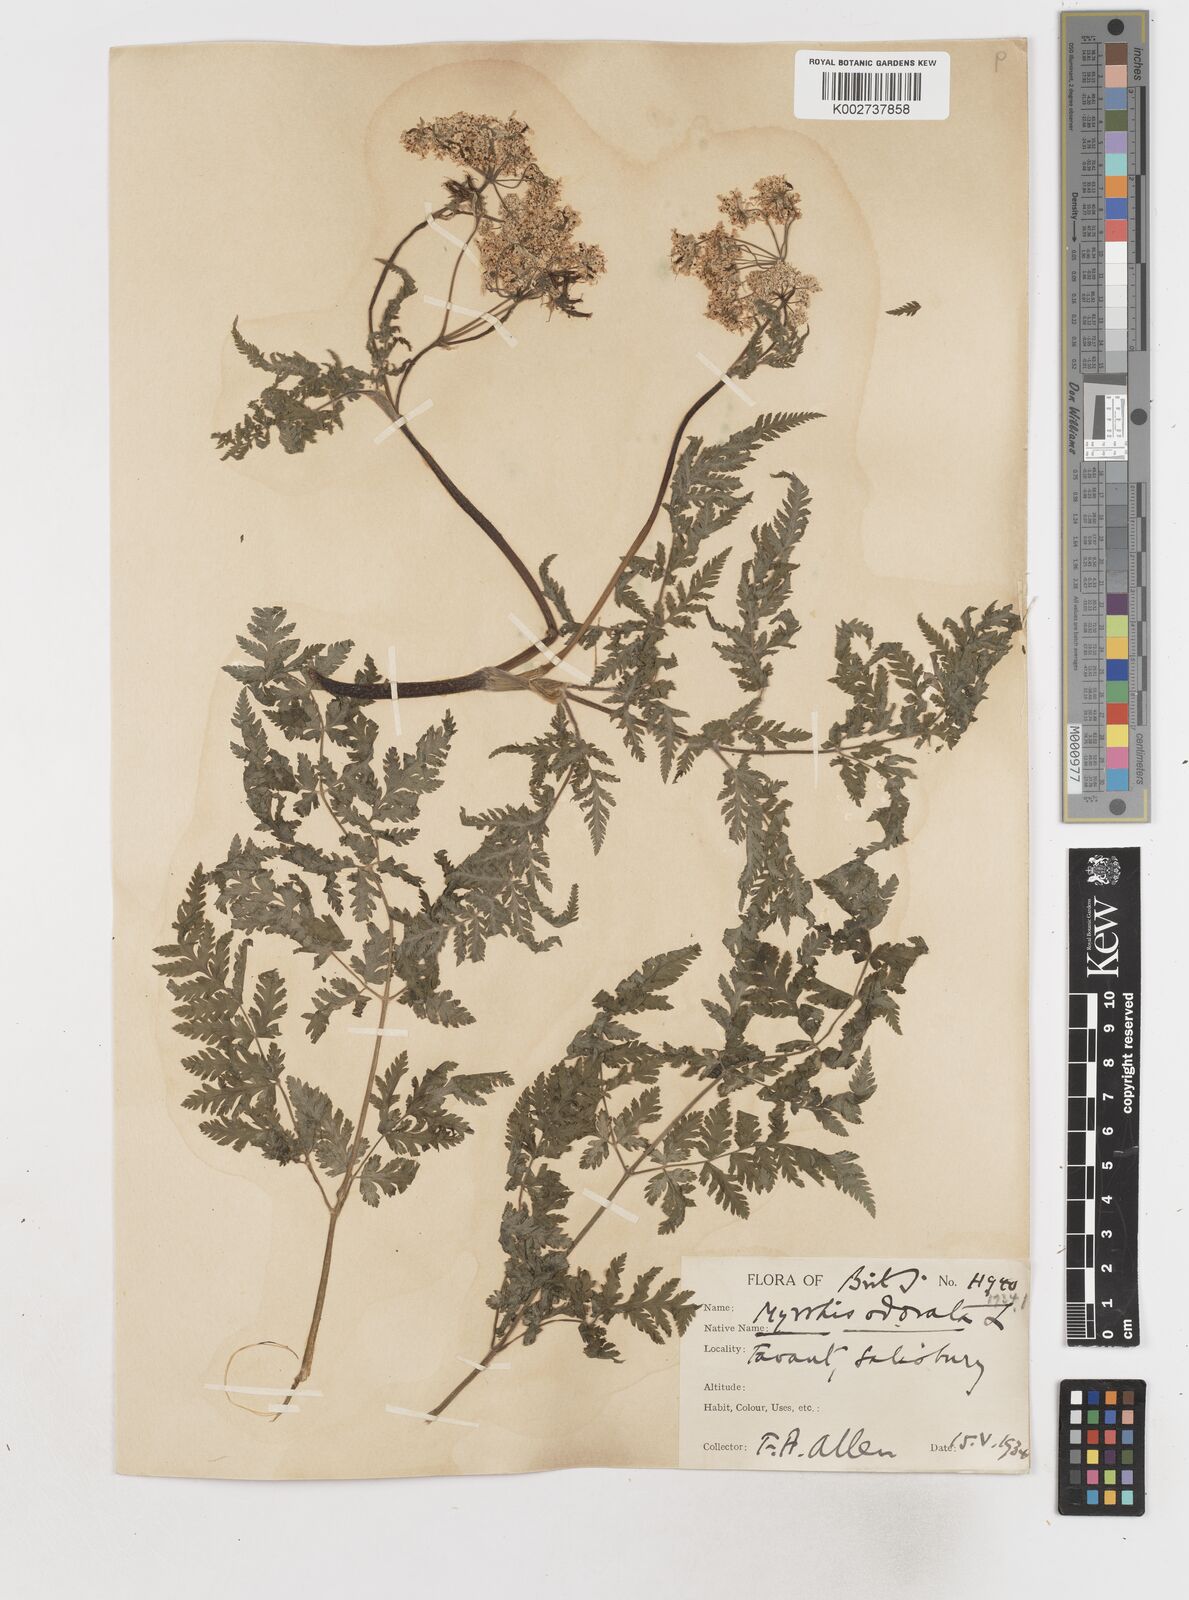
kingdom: Plantae
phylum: Tracheophyta
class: Magnoliopsida
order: Apiales
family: Apiaceae
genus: Myrrhis
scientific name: Myrrhis odorata
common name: Sweet cicely
